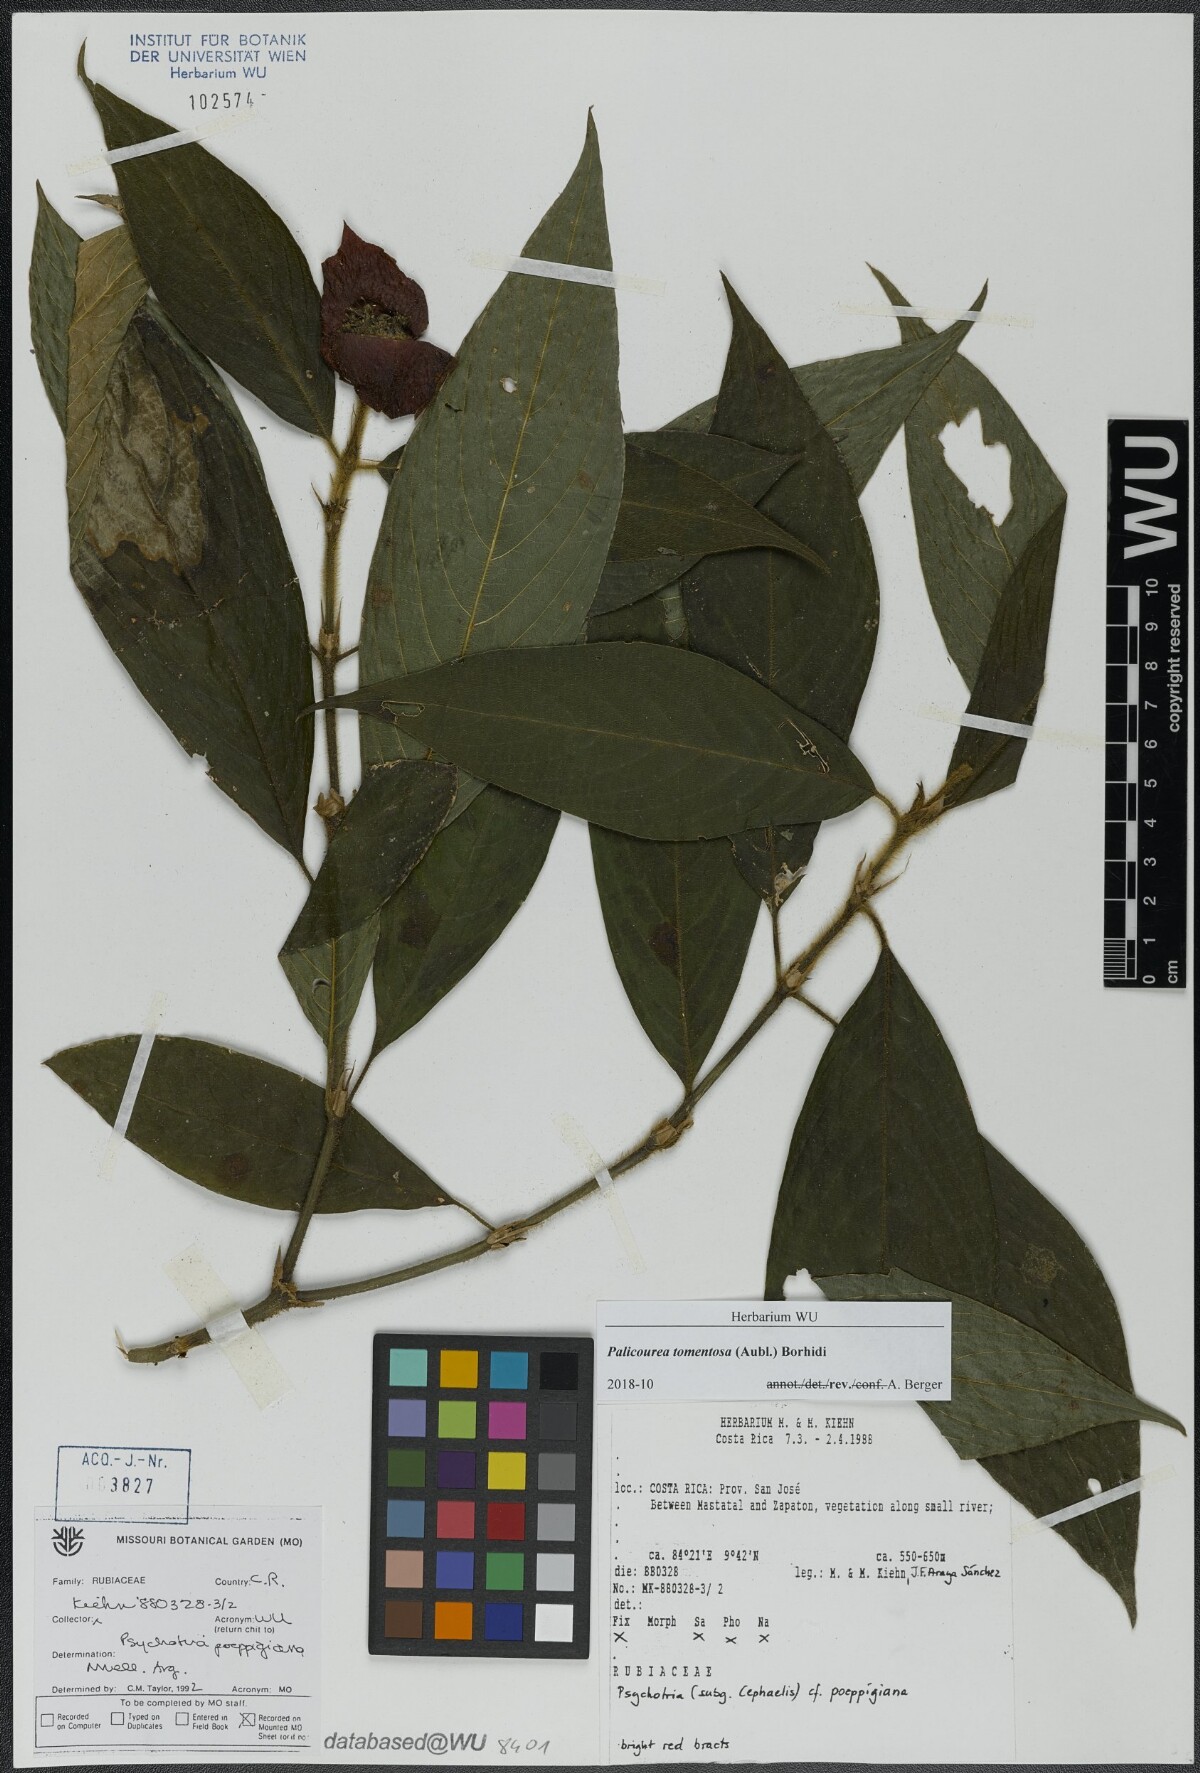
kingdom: Plantae
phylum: Tracheophyta
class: Magnoliopsida
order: Gentianales
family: Rubiaceae
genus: Palicourea
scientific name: Palicourea tomentosa
